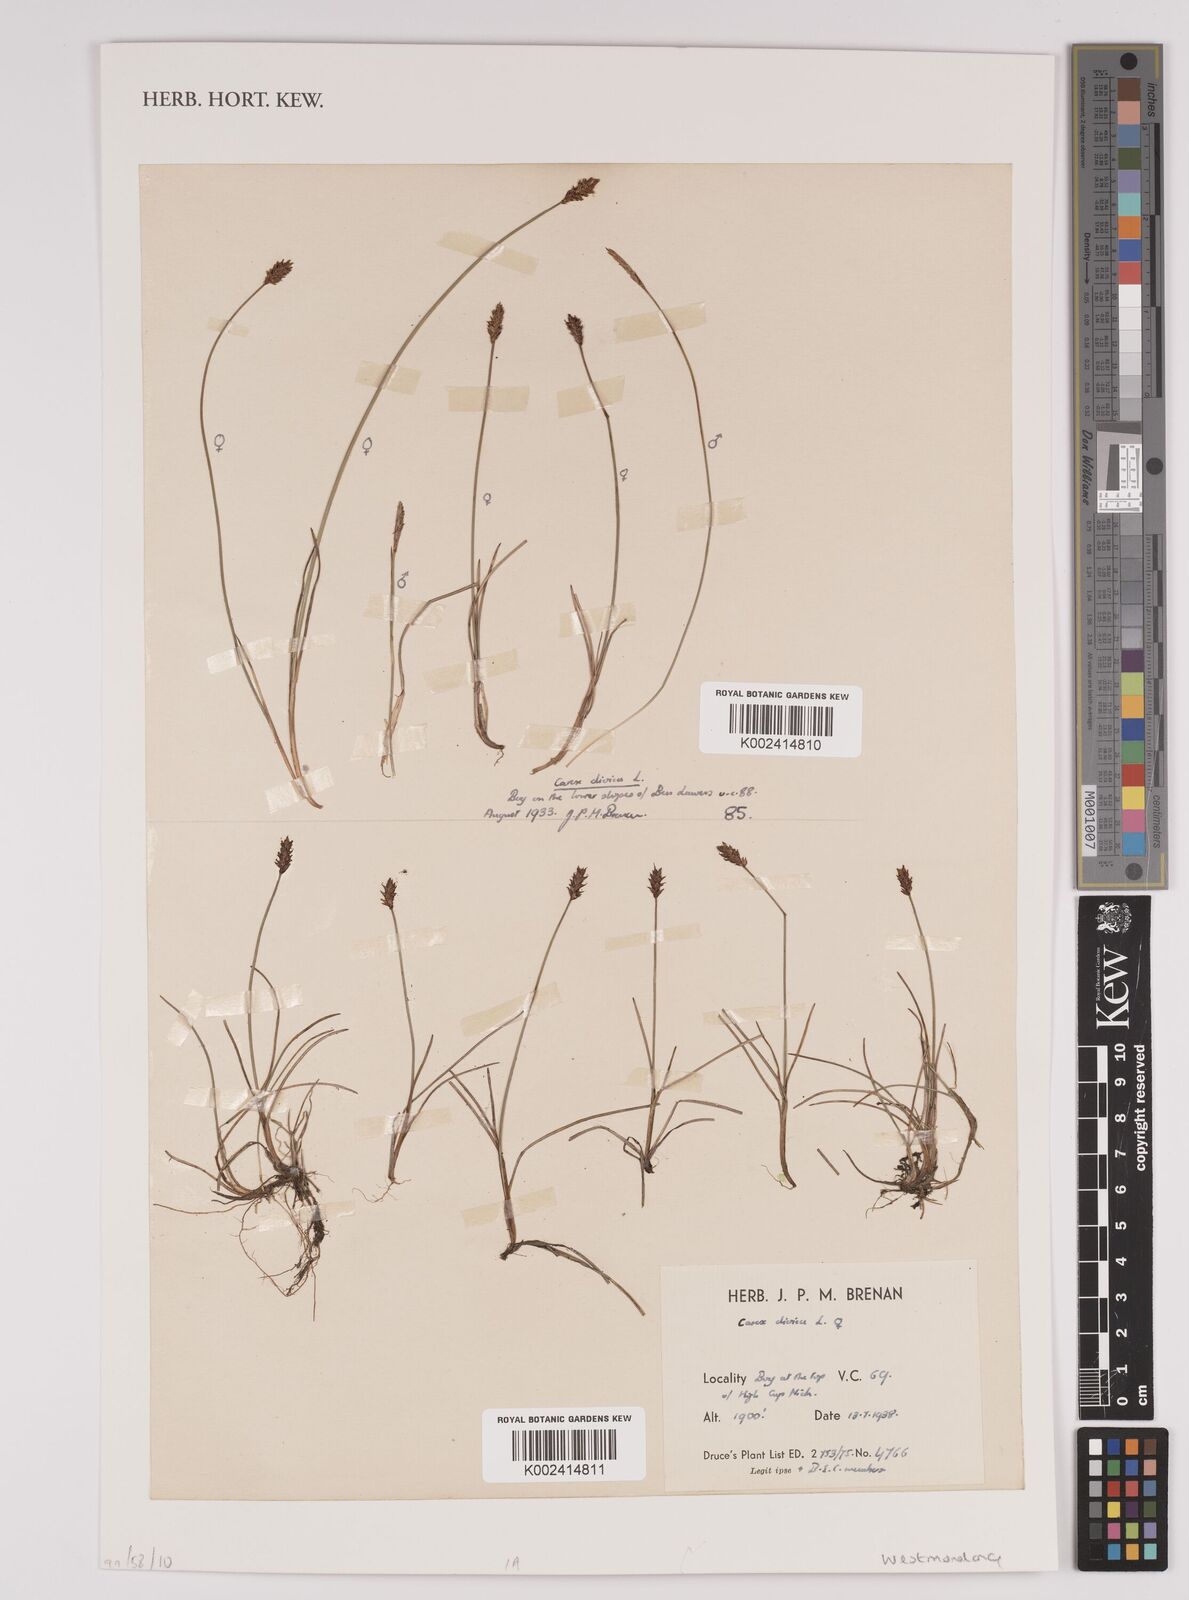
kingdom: Plantae
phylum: Tracheophyta
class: Liliopsida
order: Poales
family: Cyperaceae
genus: Carex
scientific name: Carex
